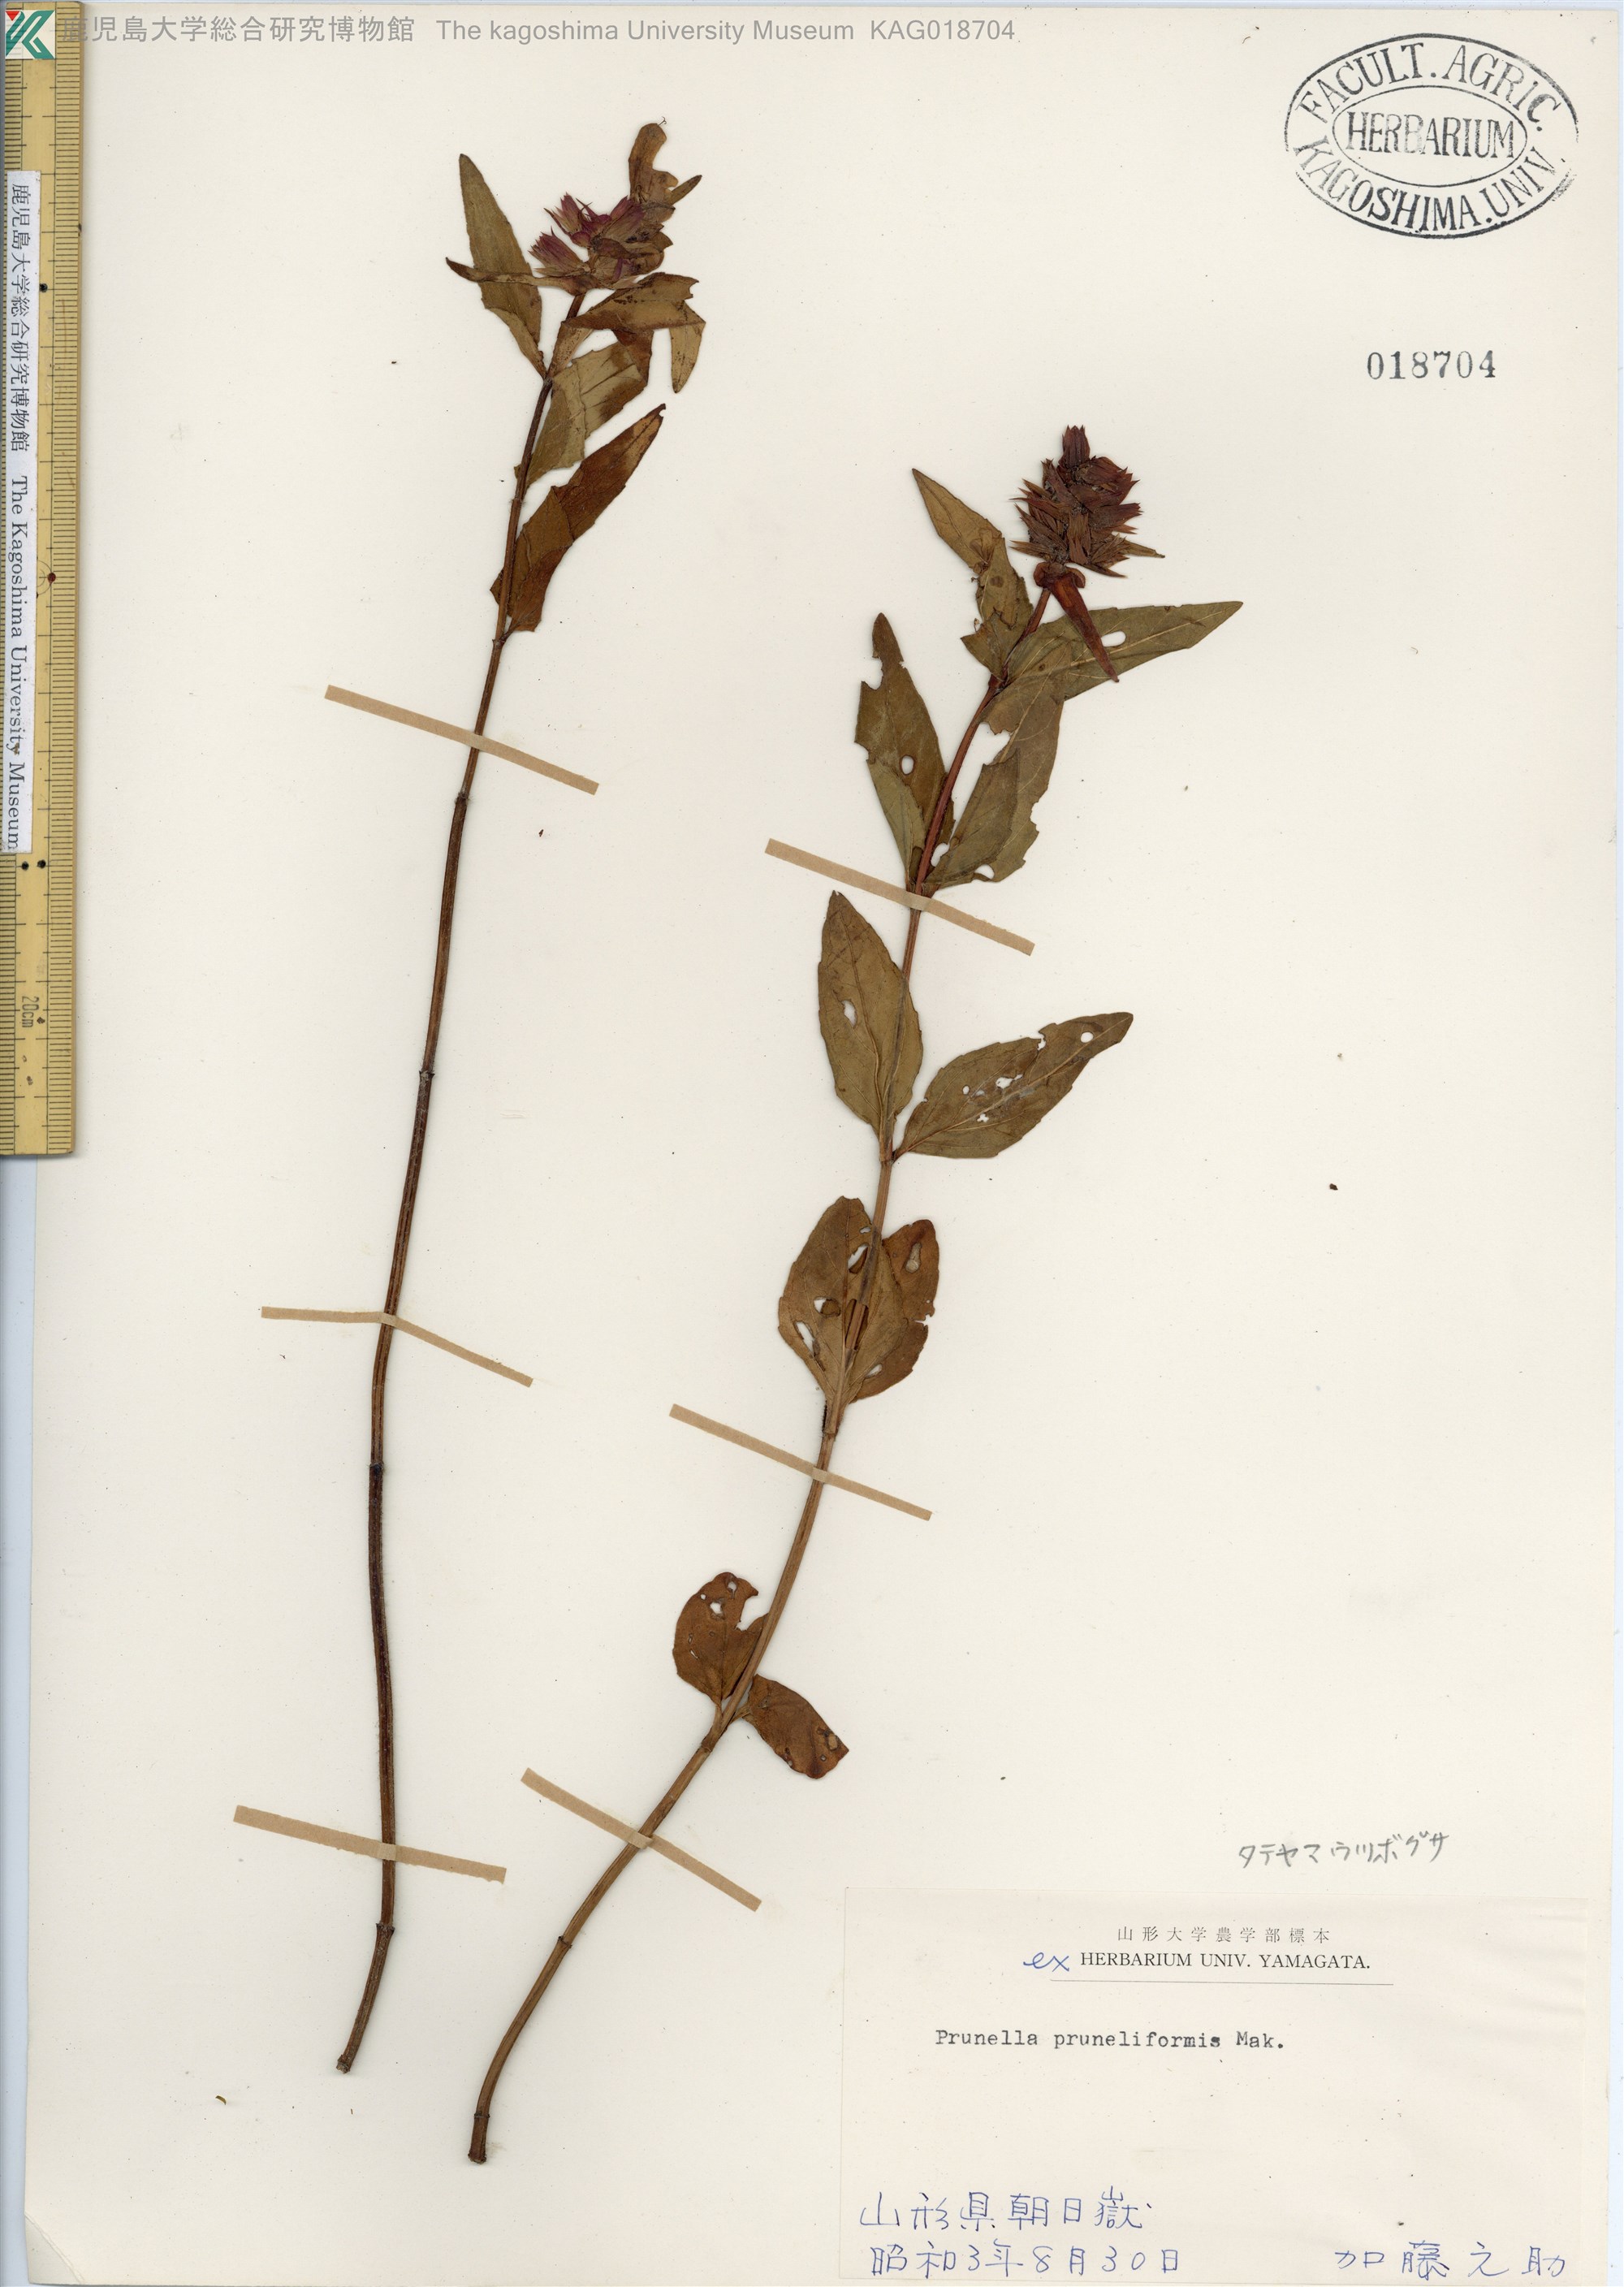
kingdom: Plantae
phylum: Tracheophyta
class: Magnoliopsida
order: Lamiales
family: Lamiaceae
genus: Prunella
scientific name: Prunella prunelliformis
